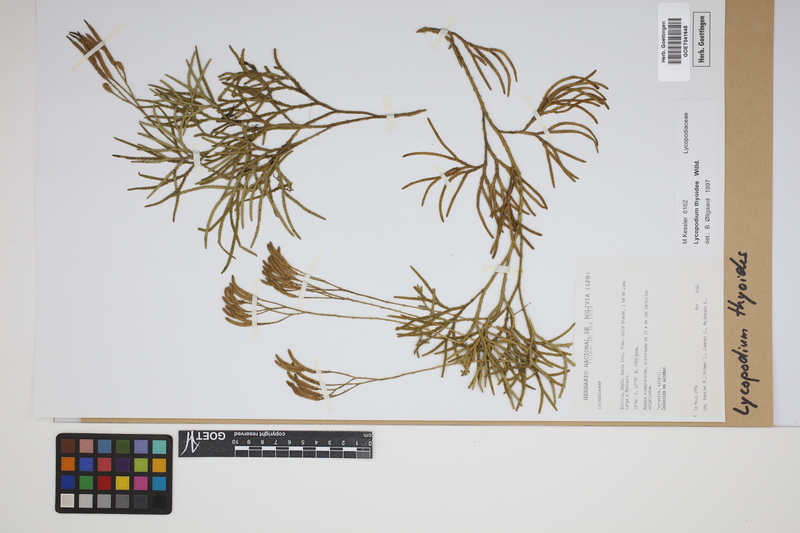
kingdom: Plantae
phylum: Tracheophyta
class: Lycopodiopsida
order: Lycopodiales
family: Lycopodiaceae
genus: Diphasiastrum
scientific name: Diphasiastrum thyoides
